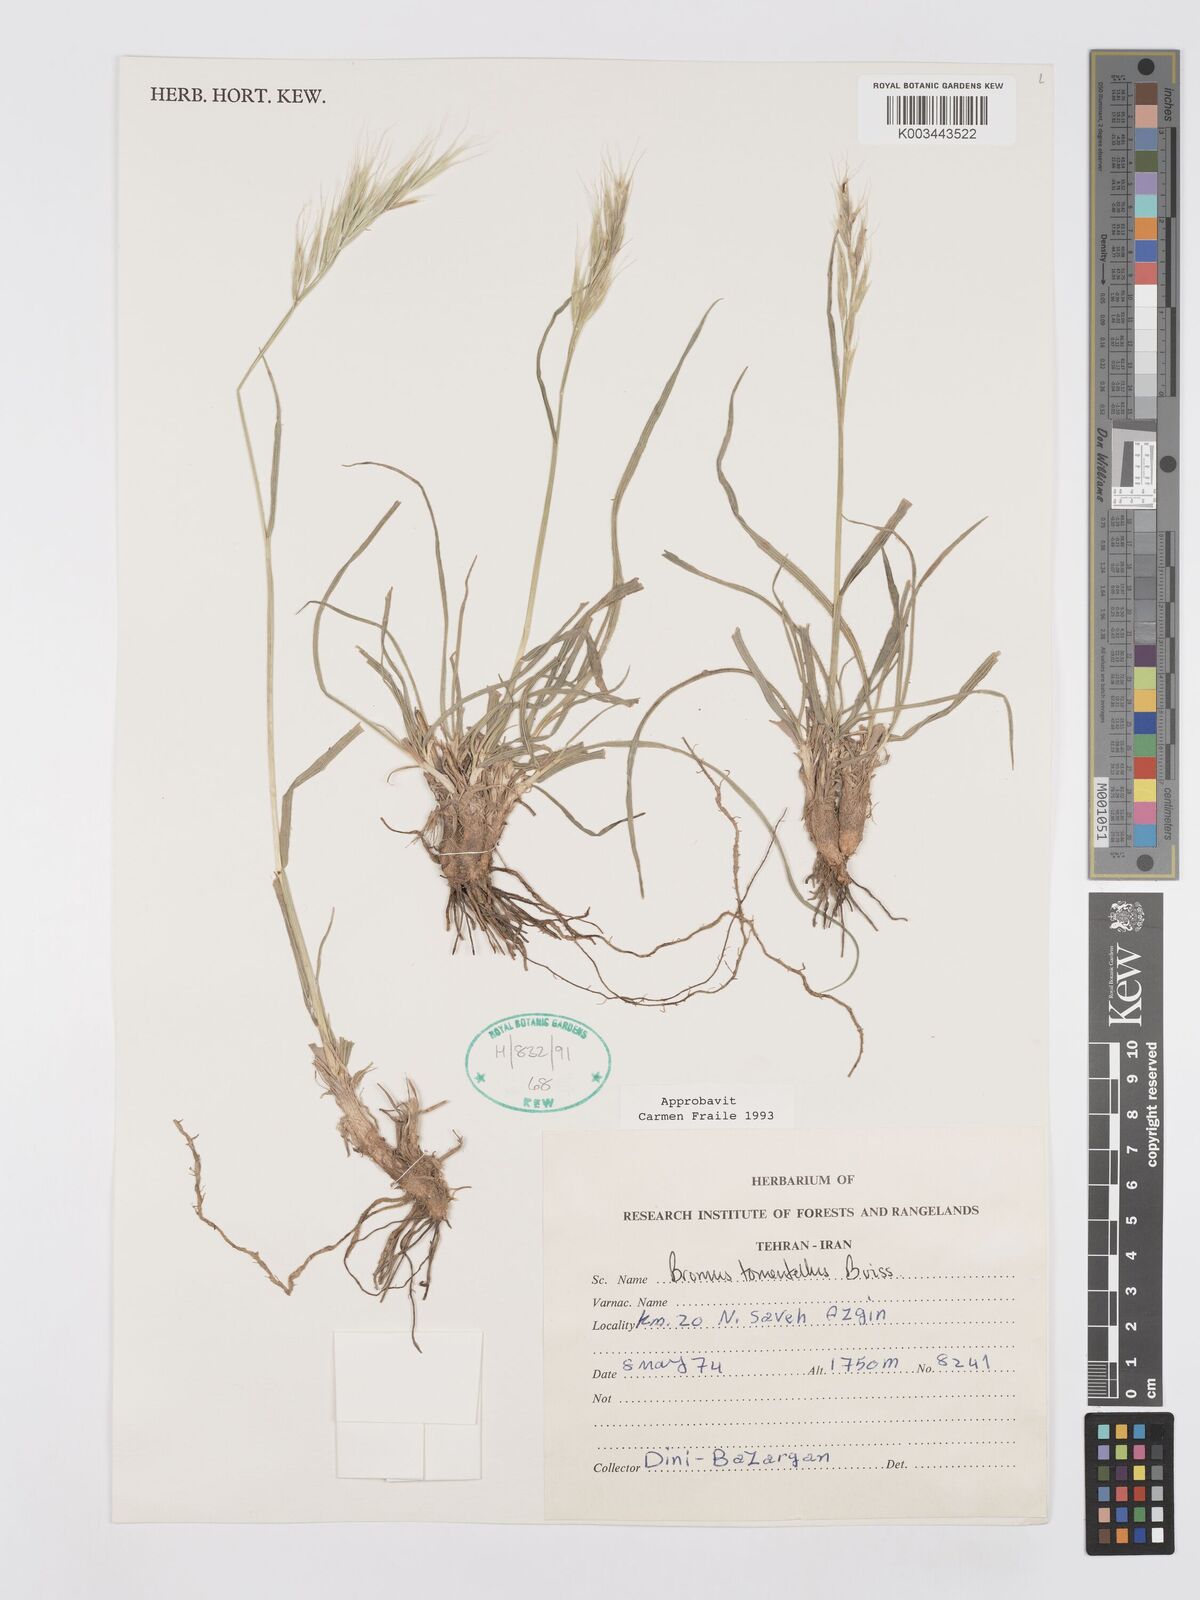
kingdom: Plantae
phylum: Tracheophyta
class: Liliopsida
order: Poales
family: Poaceae
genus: Bromus
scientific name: Bromus tomentellus
